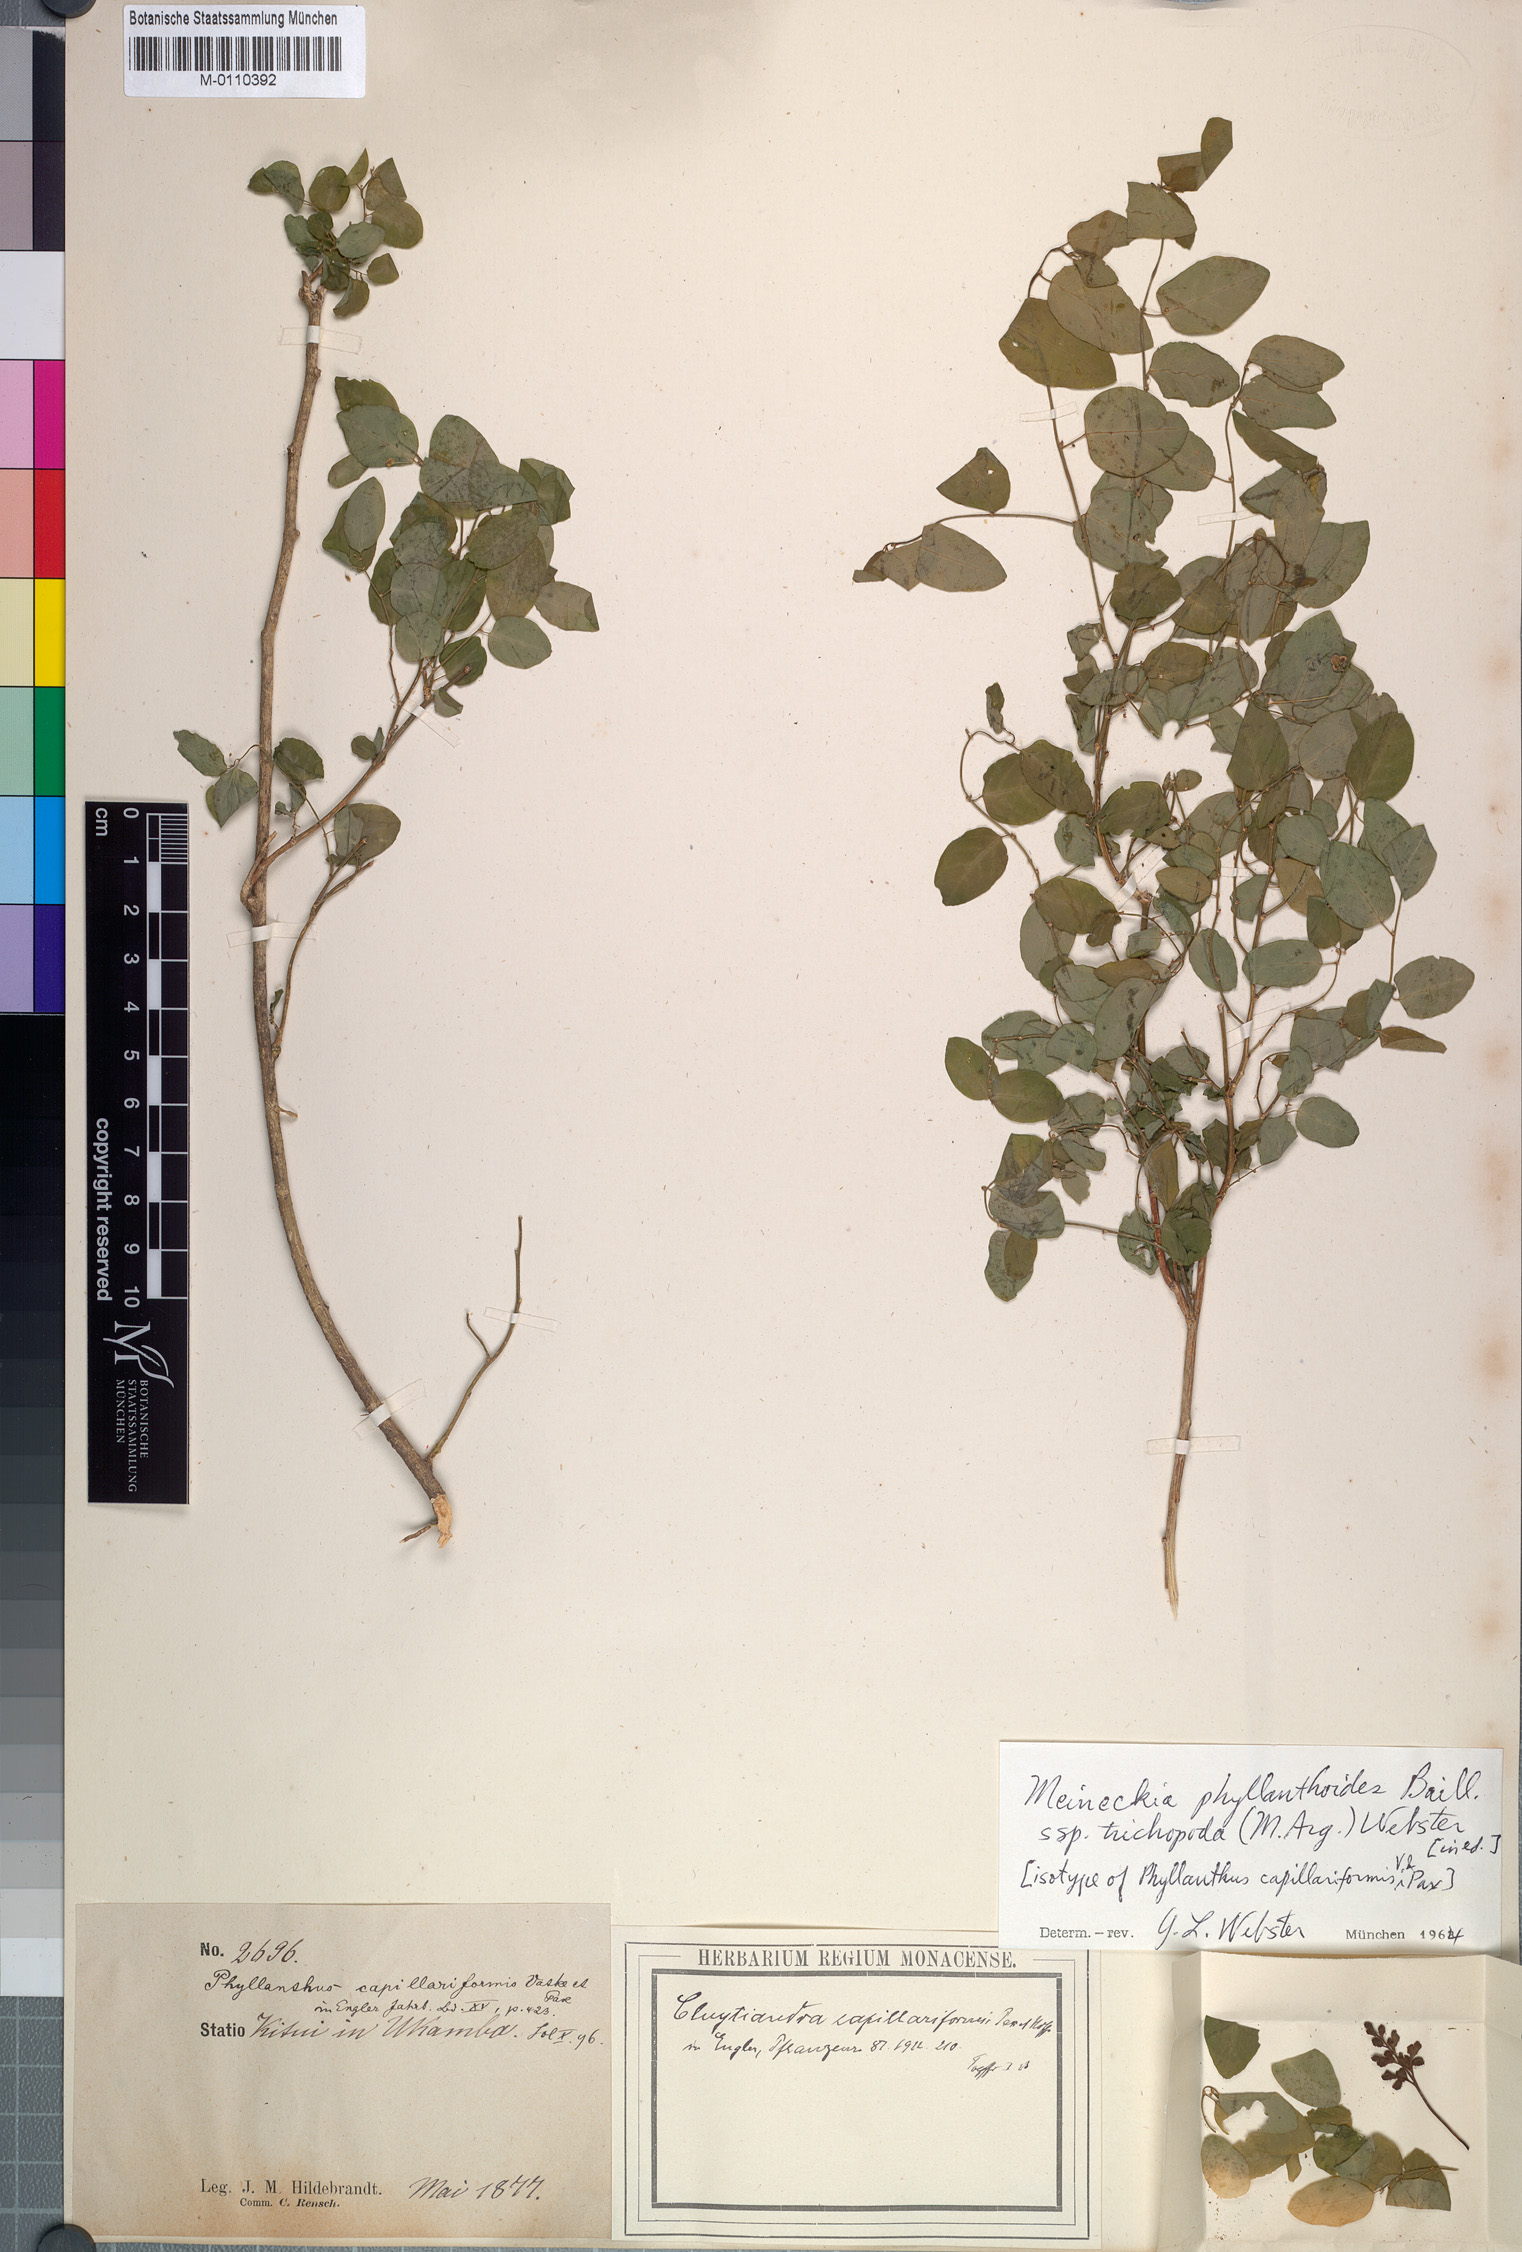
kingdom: Plantae
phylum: Tracheophyta
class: Magnoliopsida
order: Malpighiales
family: Phyllanthaceae
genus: Meineckia
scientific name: Meineckia phyllanthoides
